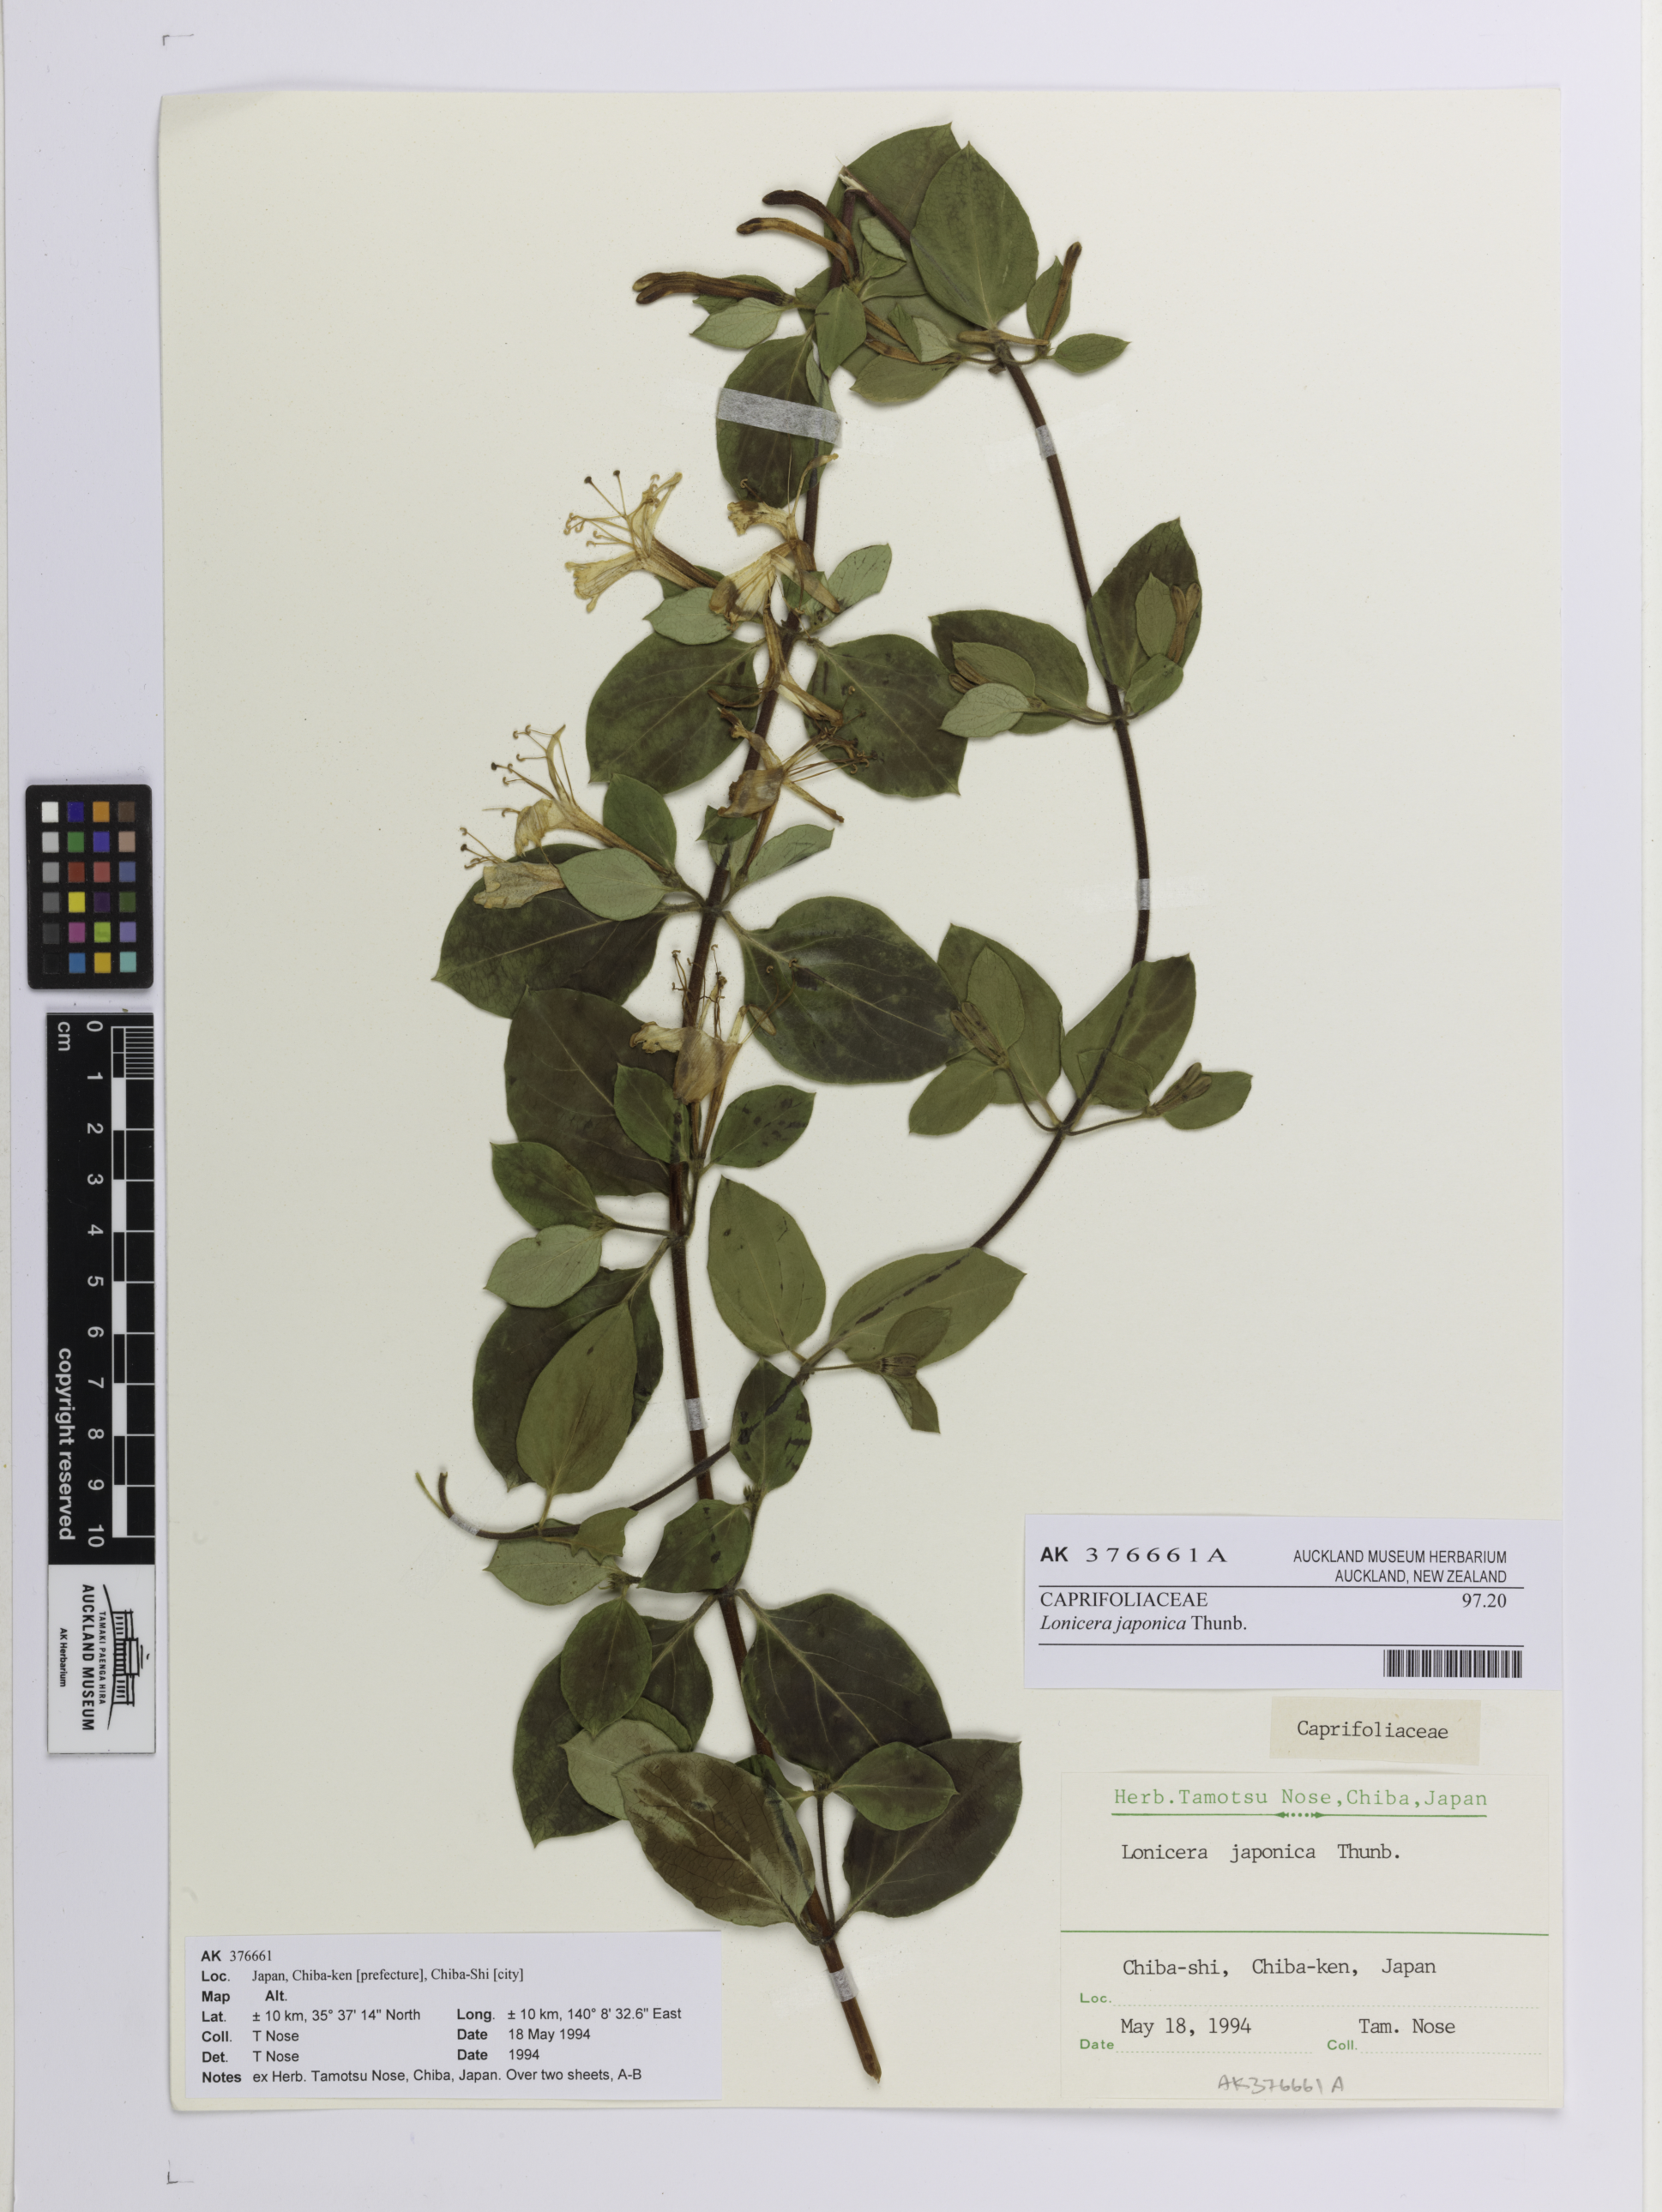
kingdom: Plantae
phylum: Tracheophyta
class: Magnoliopsida
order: Dipsacales
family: Caprifoliaceae
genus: Lonicera
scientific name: Lonicera japonica
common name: Japanese honeysuckle
